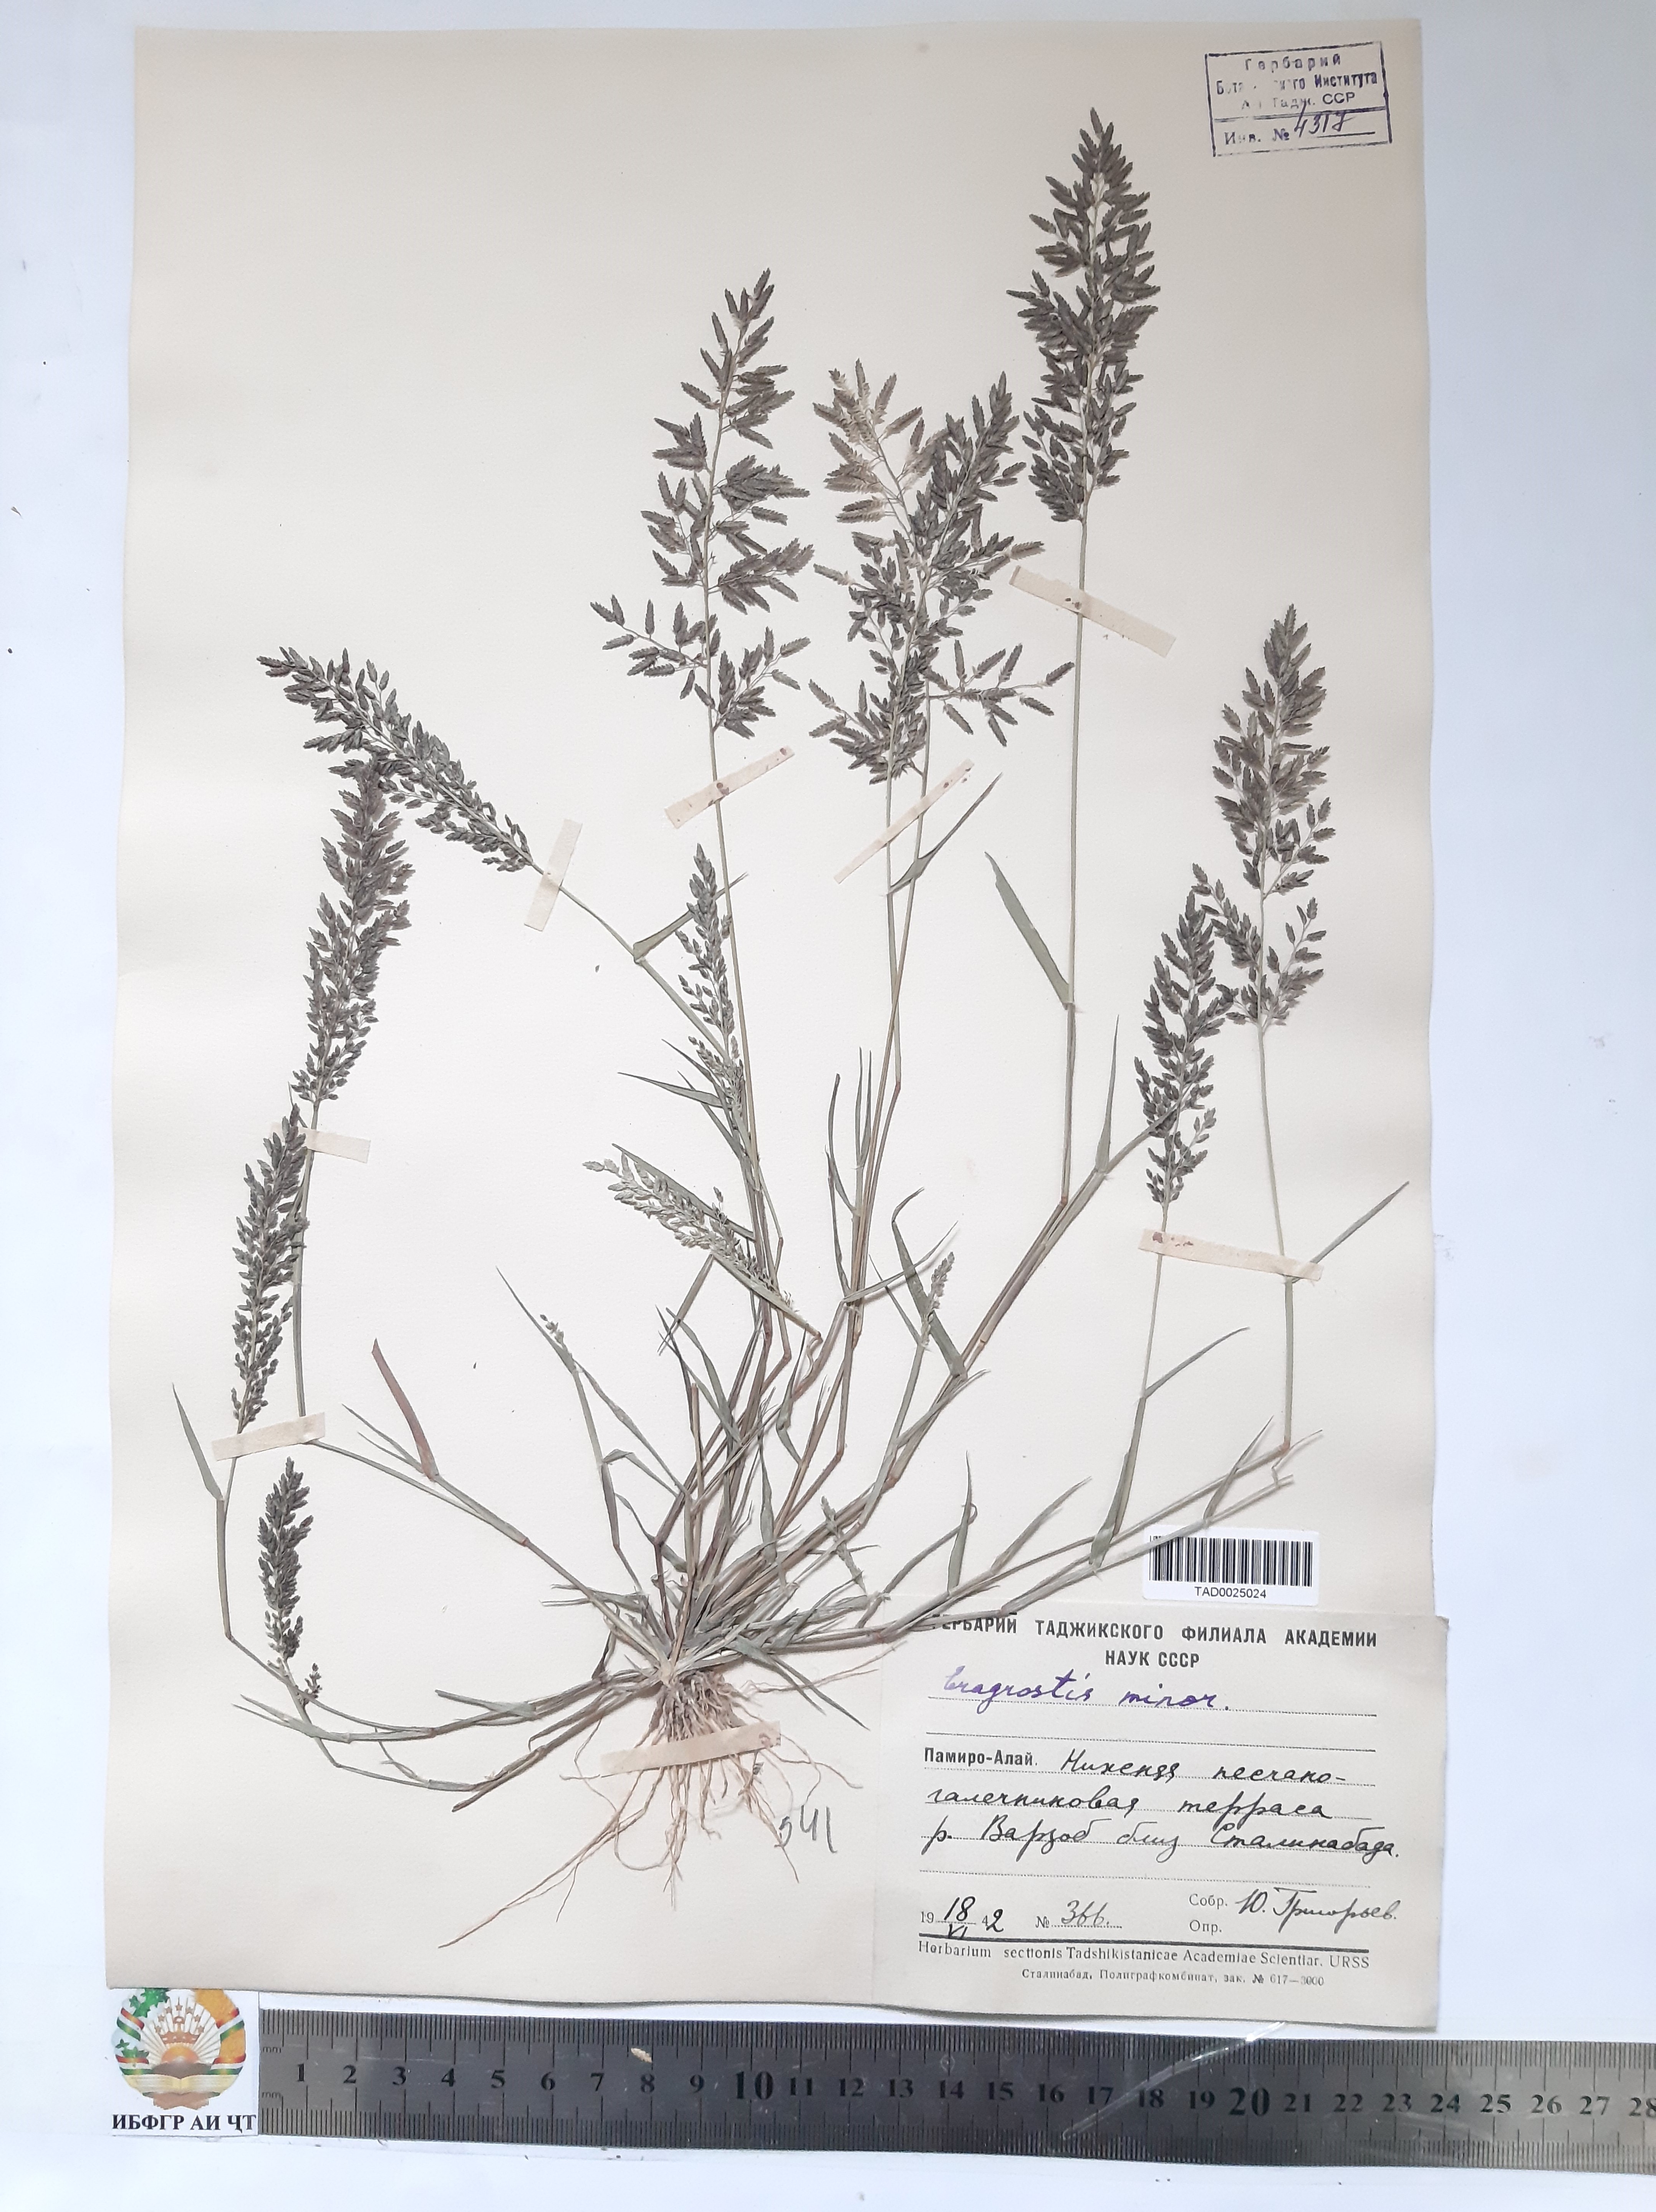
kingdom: Plantae
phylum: Tracheophyta
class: Liliopsida
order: Poales
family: Poaceae
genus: Eragrostis
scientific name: Eragrostis minor
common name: Small love-grass
